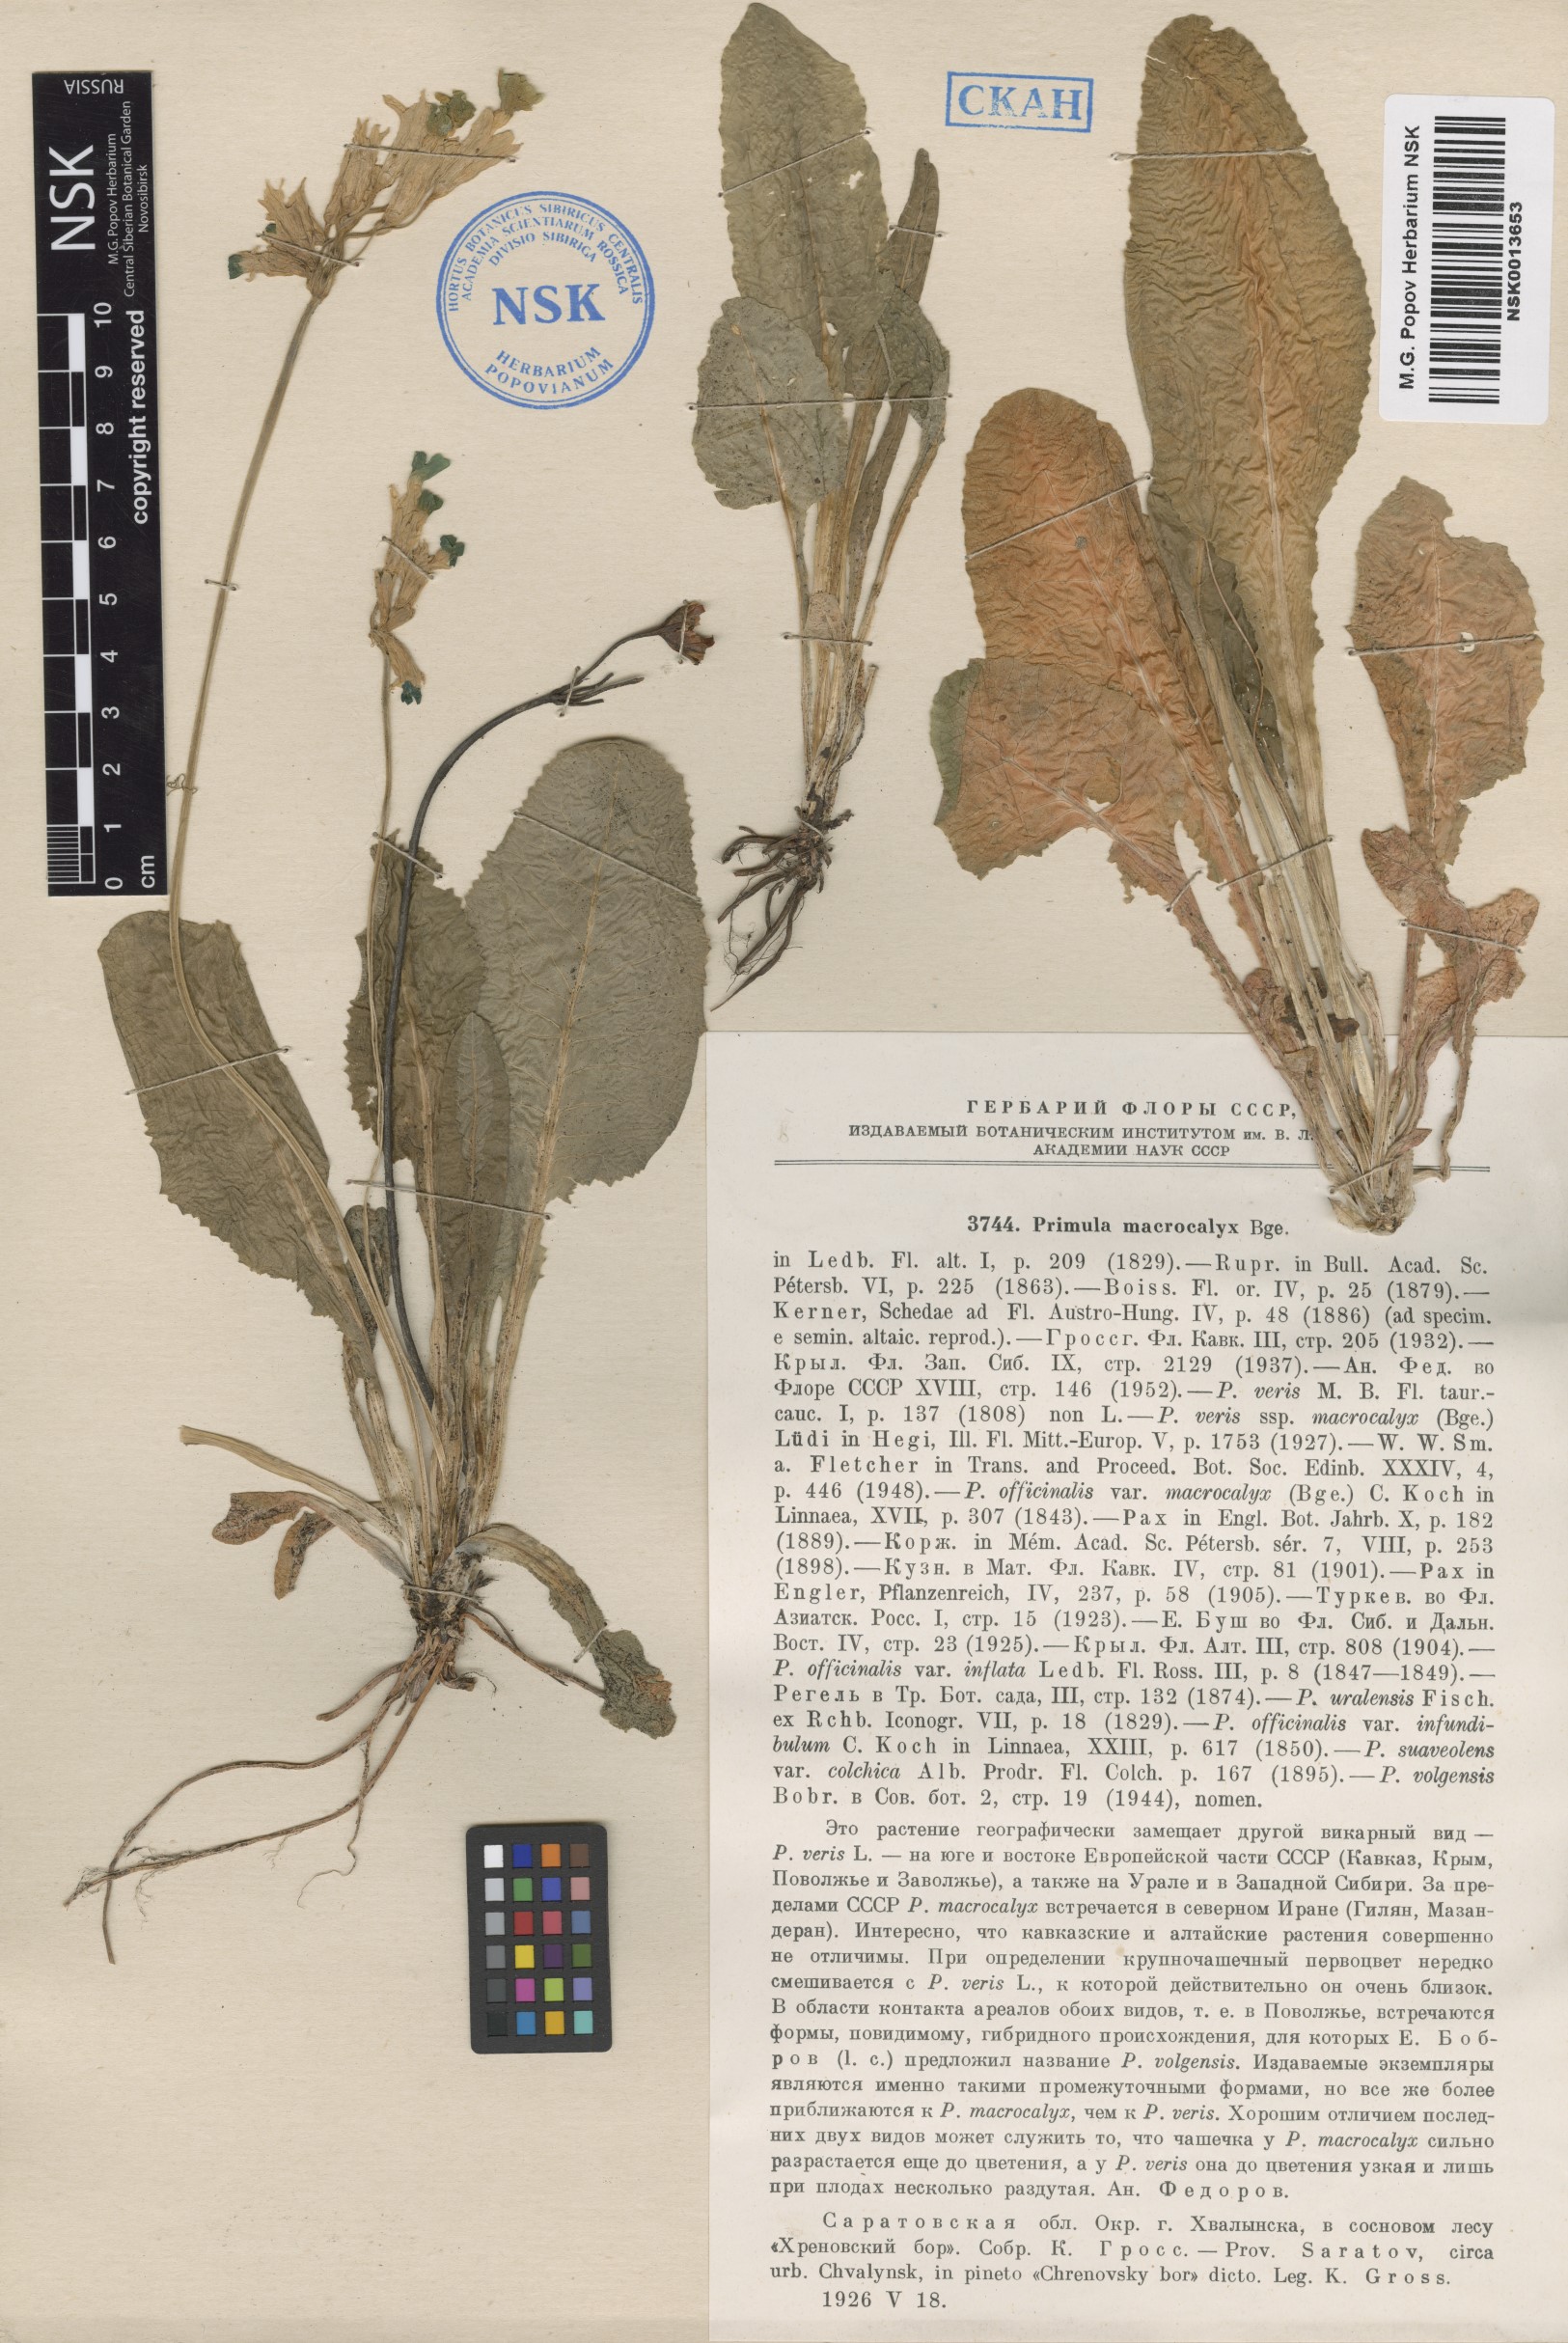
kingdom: Plantae
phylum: Tracheophyta
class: Magnoliopsida
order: Ericales
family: Primulaceae
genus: Primula
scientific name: Primula veris
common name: Cowslip
